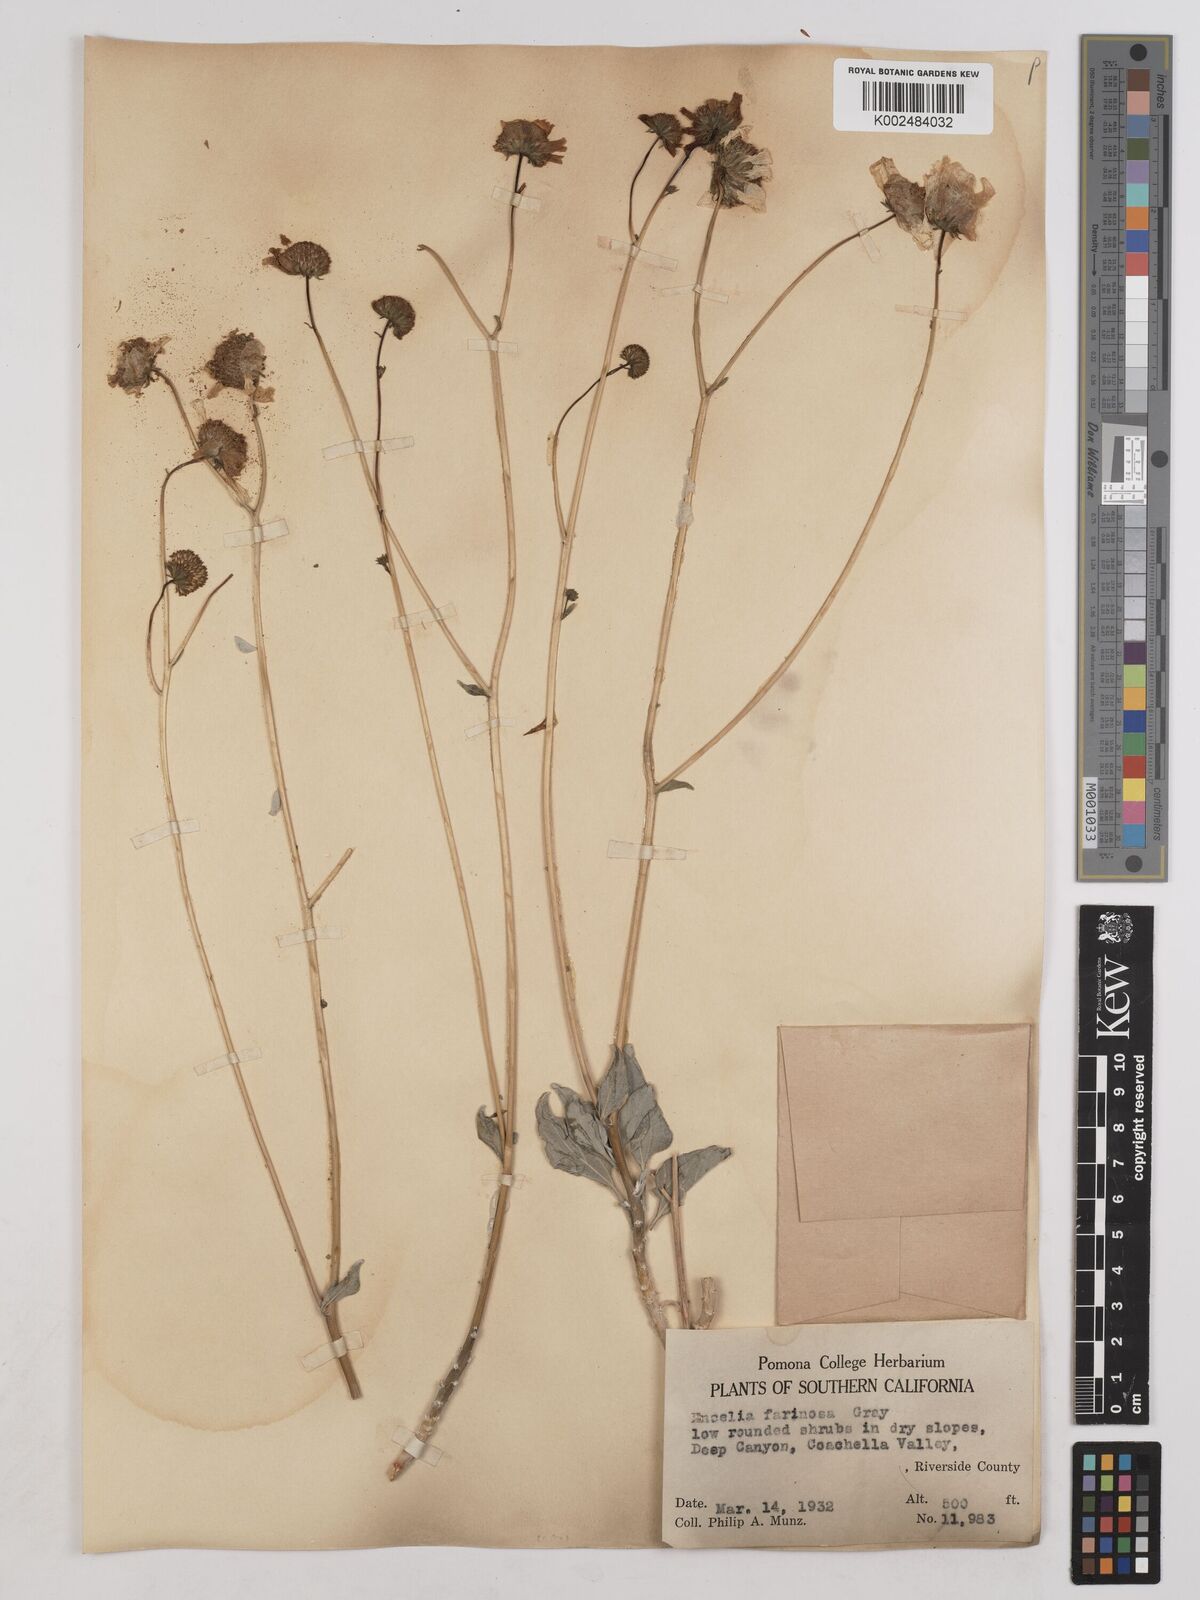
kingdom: Plantae
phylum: Tracheophyta
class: Magnoliopsida
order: Asterales
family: Asteraceae
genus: Encelia
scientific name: Encelia farinosa
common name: Brittlebush
